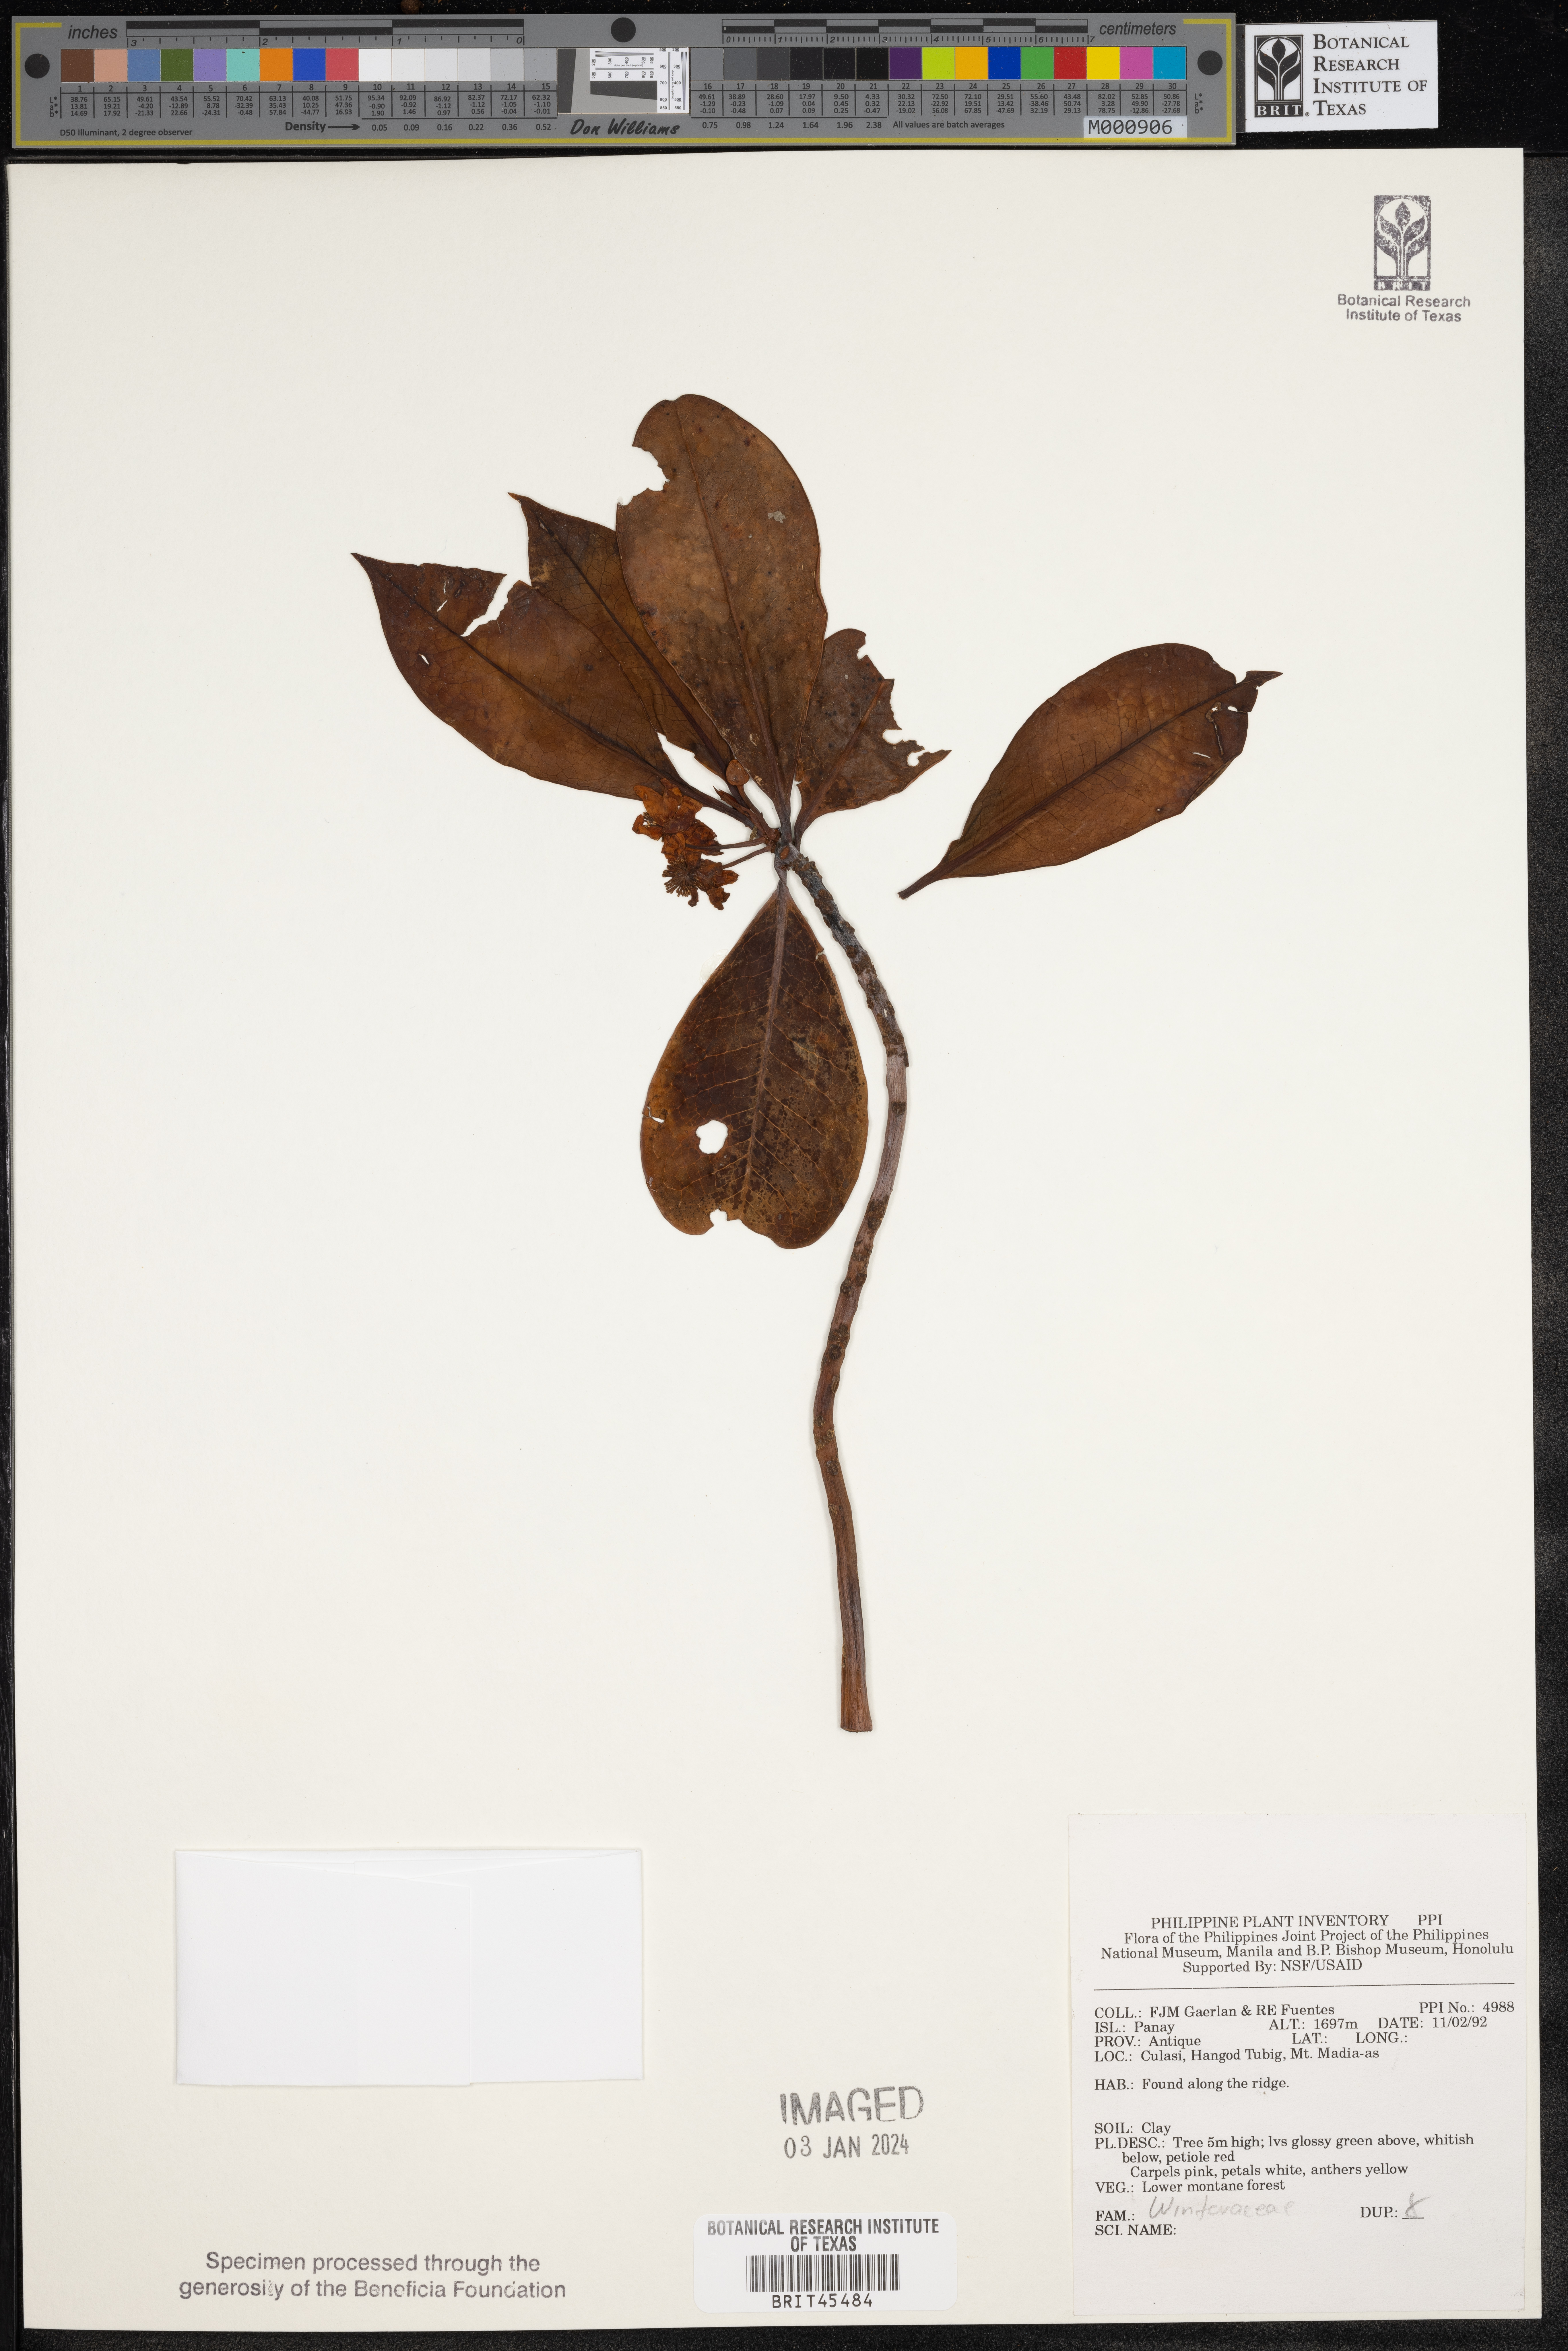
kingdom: Plantae
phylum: Tracheophyta
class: Magnoliopsida
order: Canellales
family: Winteraceae
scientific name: Winteraceae
